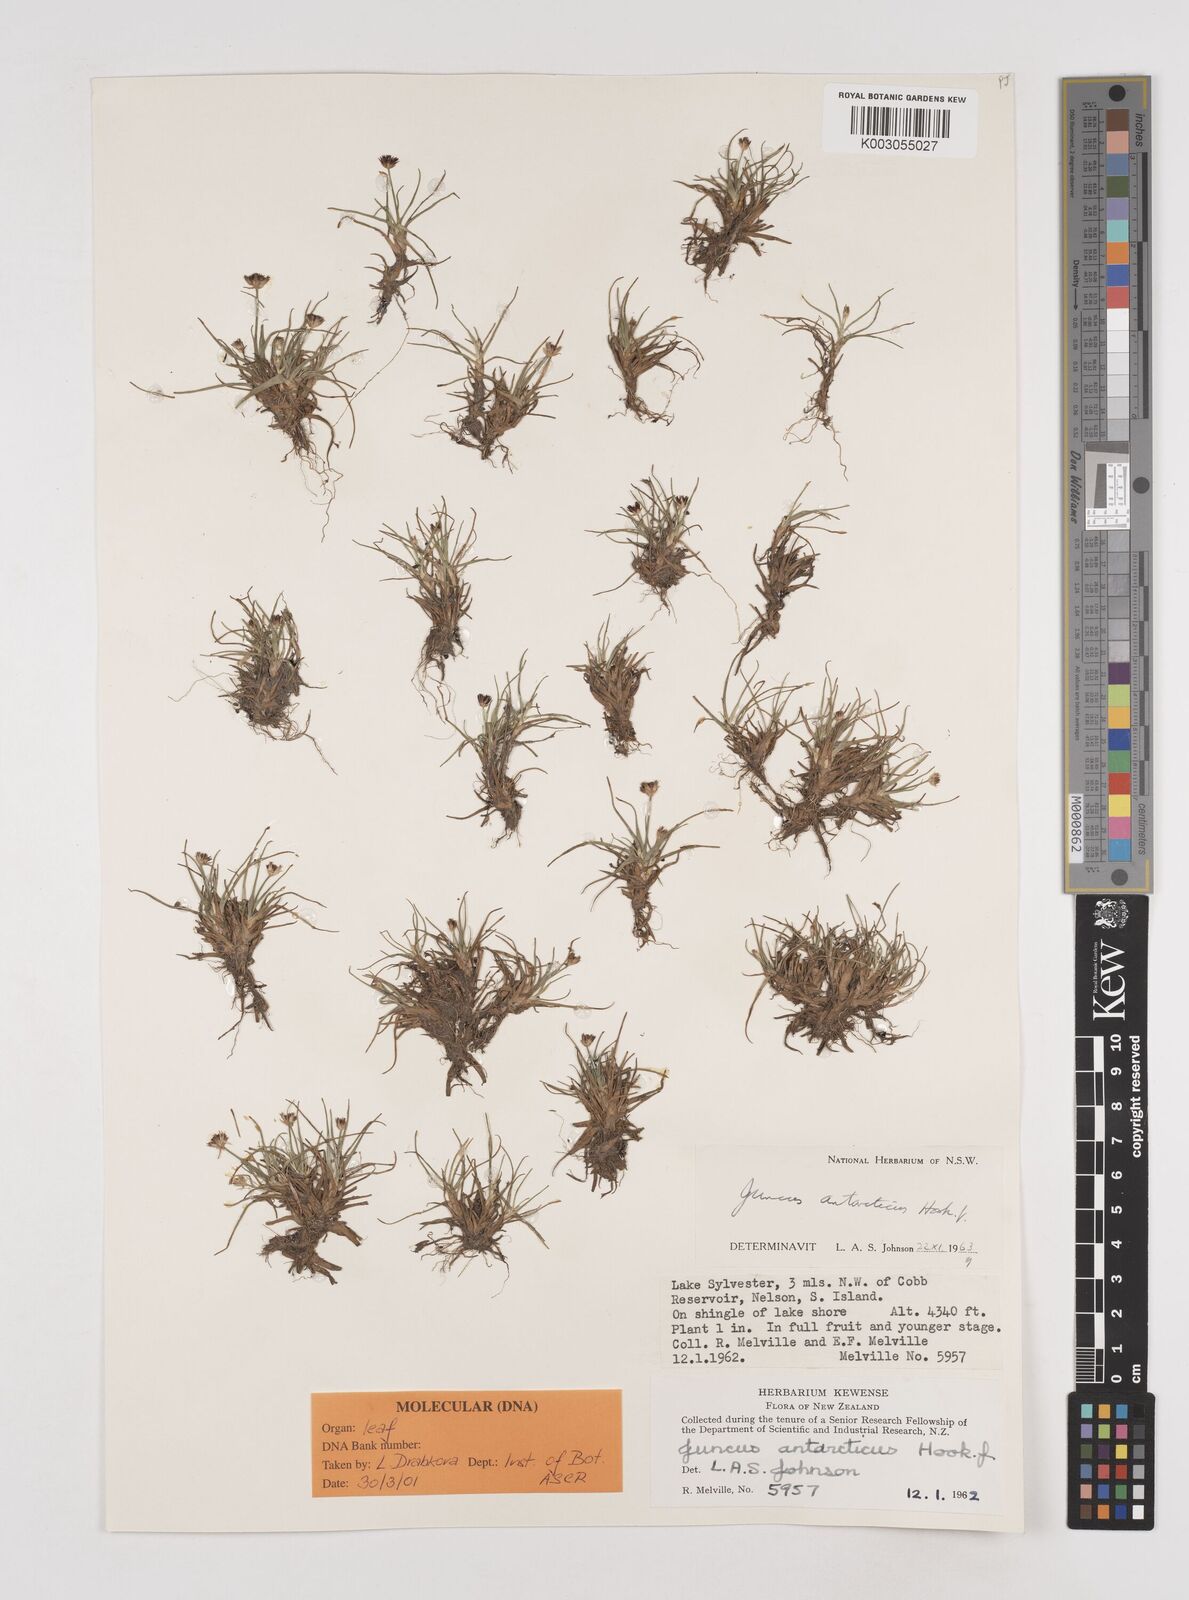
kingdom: Plantae
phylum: Tracheophyta
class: Liliopsida
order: Poales
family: Juncaceae
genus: Juncus
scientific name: Juncus antarcticus
